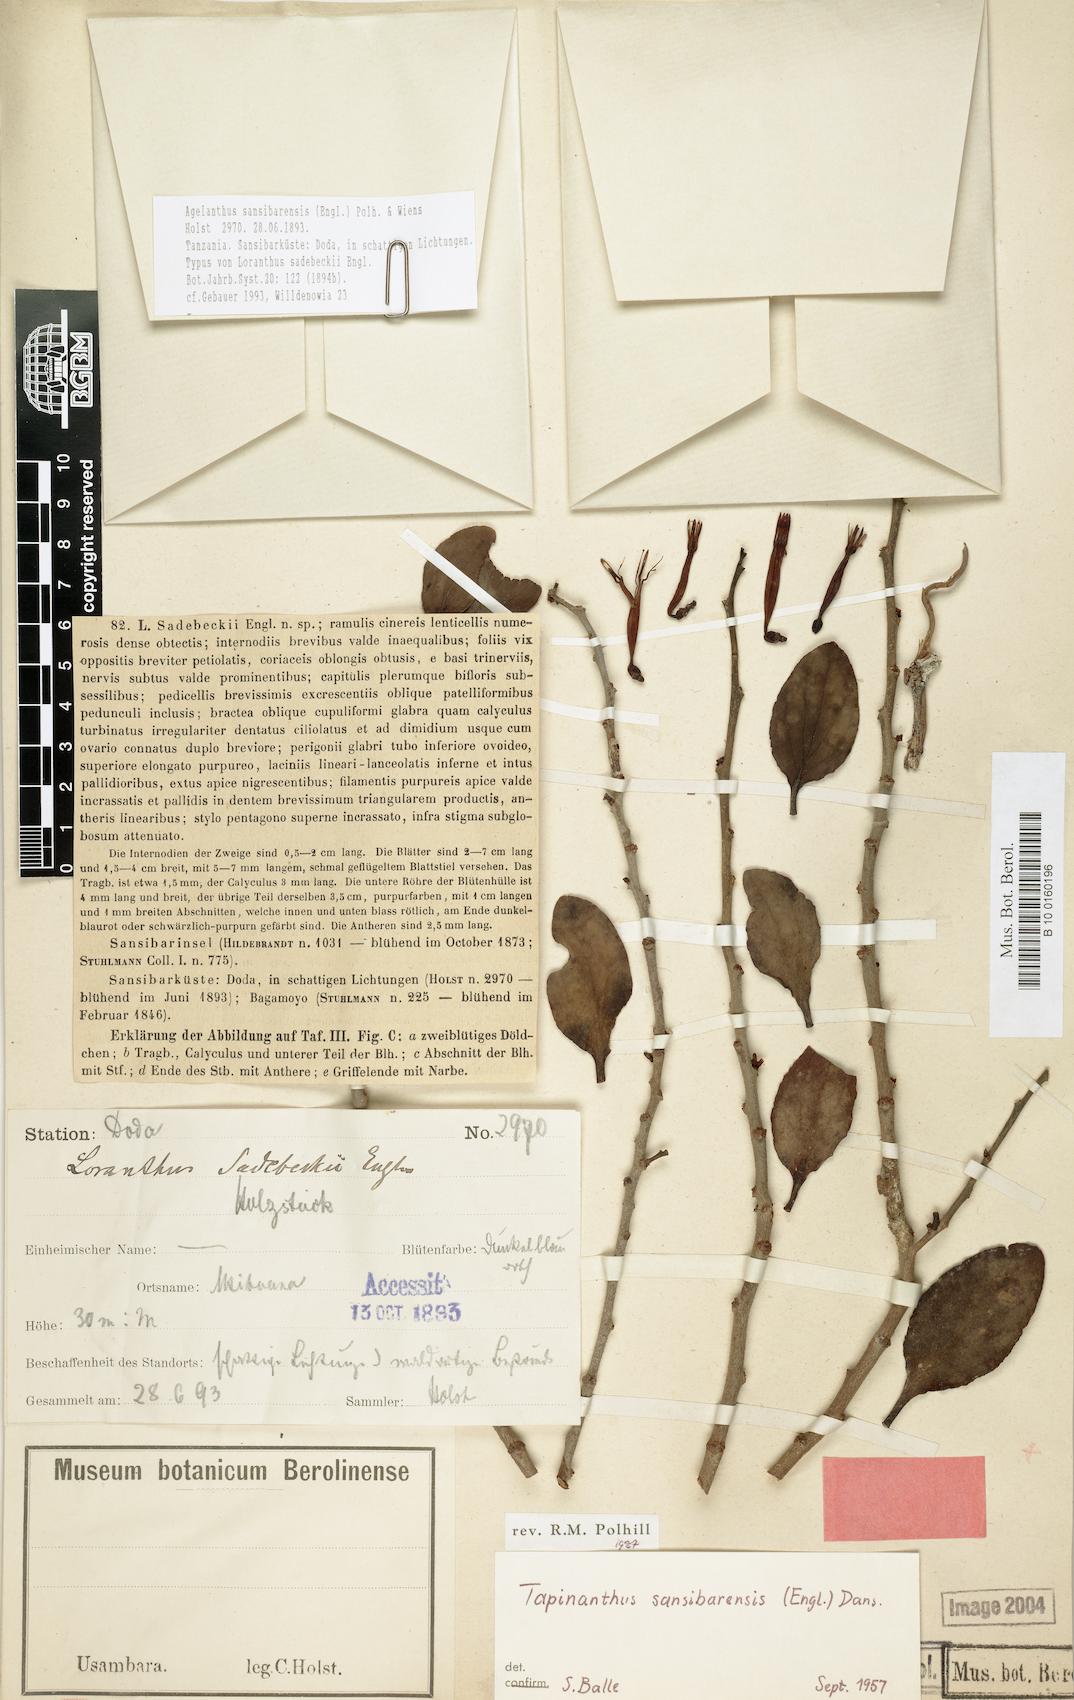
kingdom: Plantae
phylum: Tracheophyta
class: Magnoliopsida
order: Santalales
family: Loranthaceae
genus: Agelanthus
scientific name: Agelanthus sansibarensis
